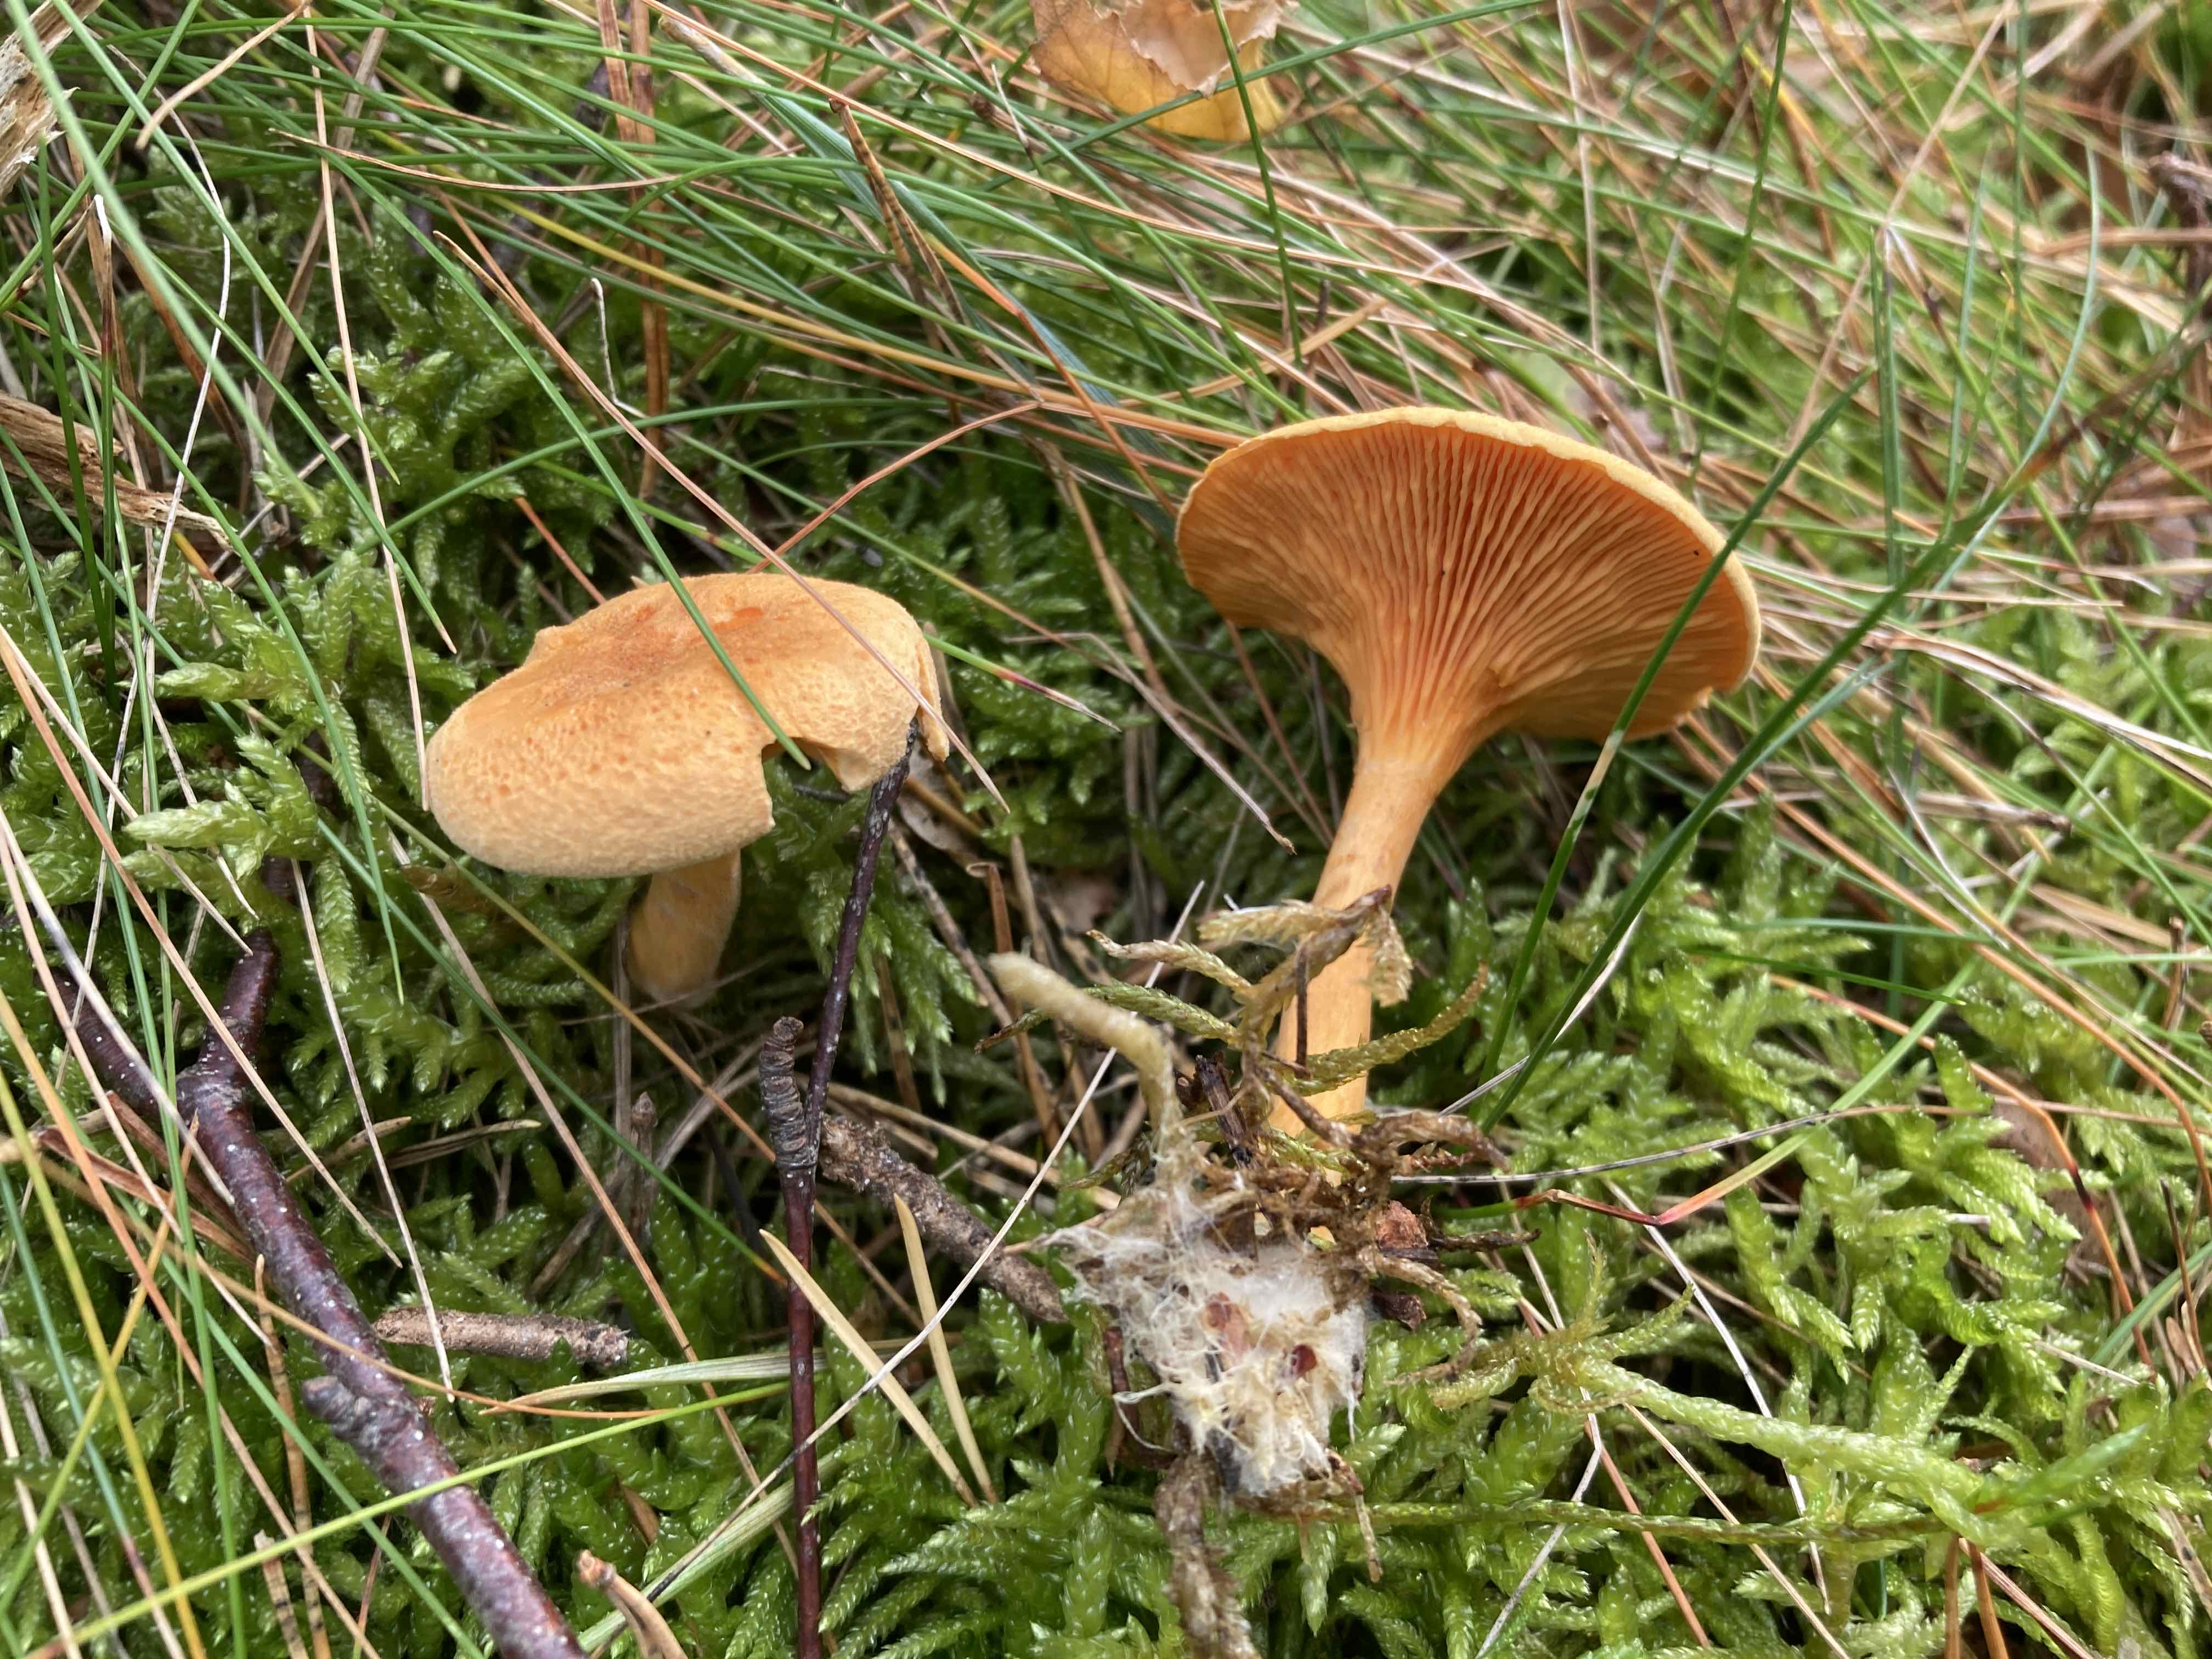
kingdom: Fungi
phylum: Basidiomycota
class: Agaricomycetes
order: Boletales
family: Hygrophoropsidaceae
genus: Hygrophoropsis
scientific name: Hygrophoropsis aurantiaca
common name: almindelig orangekantarel
